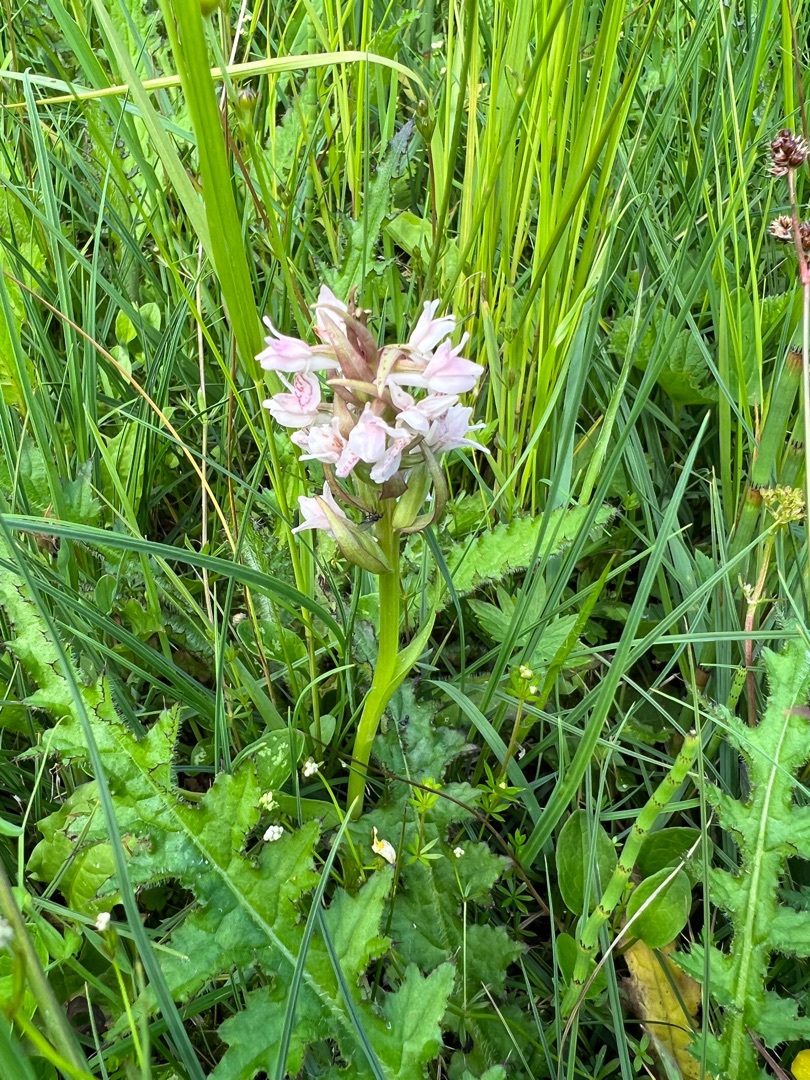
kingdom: Plantae
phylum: Tracheophyta
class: Liliopsida
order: Asparagales
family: Orchidaceae
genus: Dactylorhiza
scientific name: Dactylorhiza incarnata
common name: Kødfarvet gøgeurt
